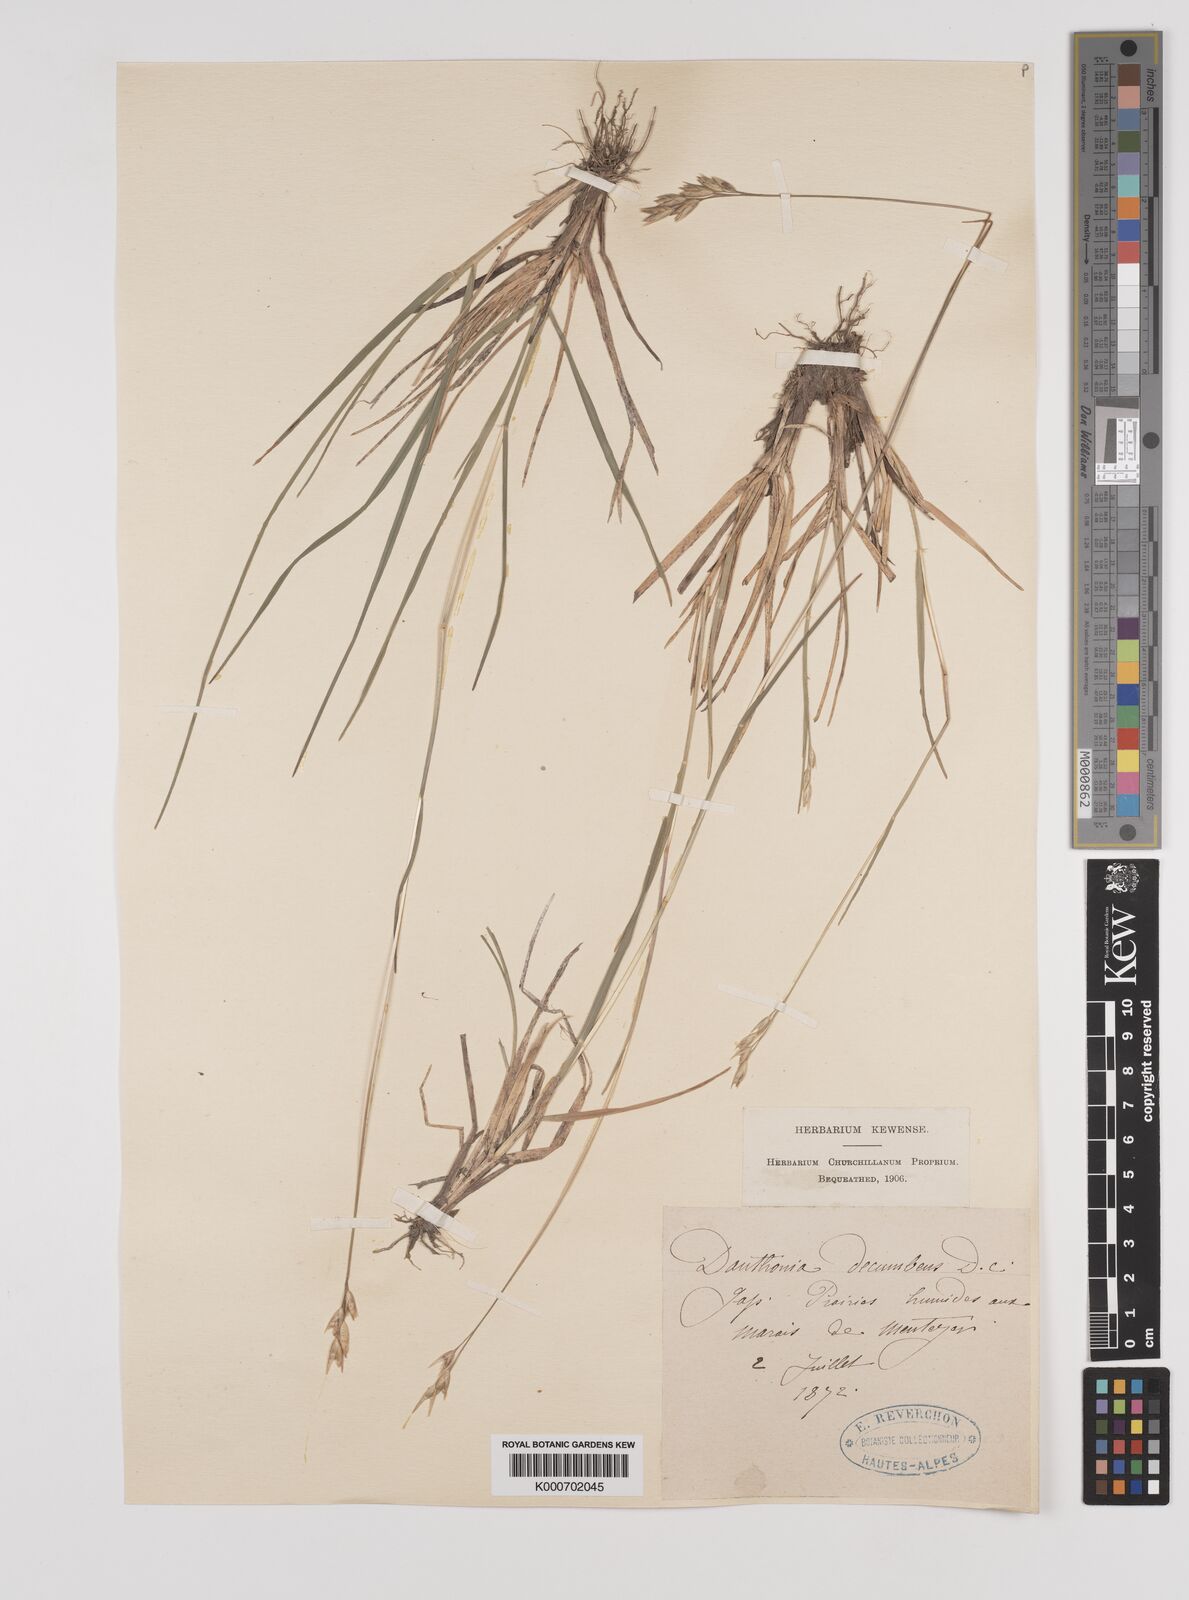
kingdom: Plantae
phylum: Tracheophyta
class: Liliopsida
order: Poales
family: Poaceae
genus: Danthonia
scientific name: Danthonia decumbens
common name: Common heathgrass
